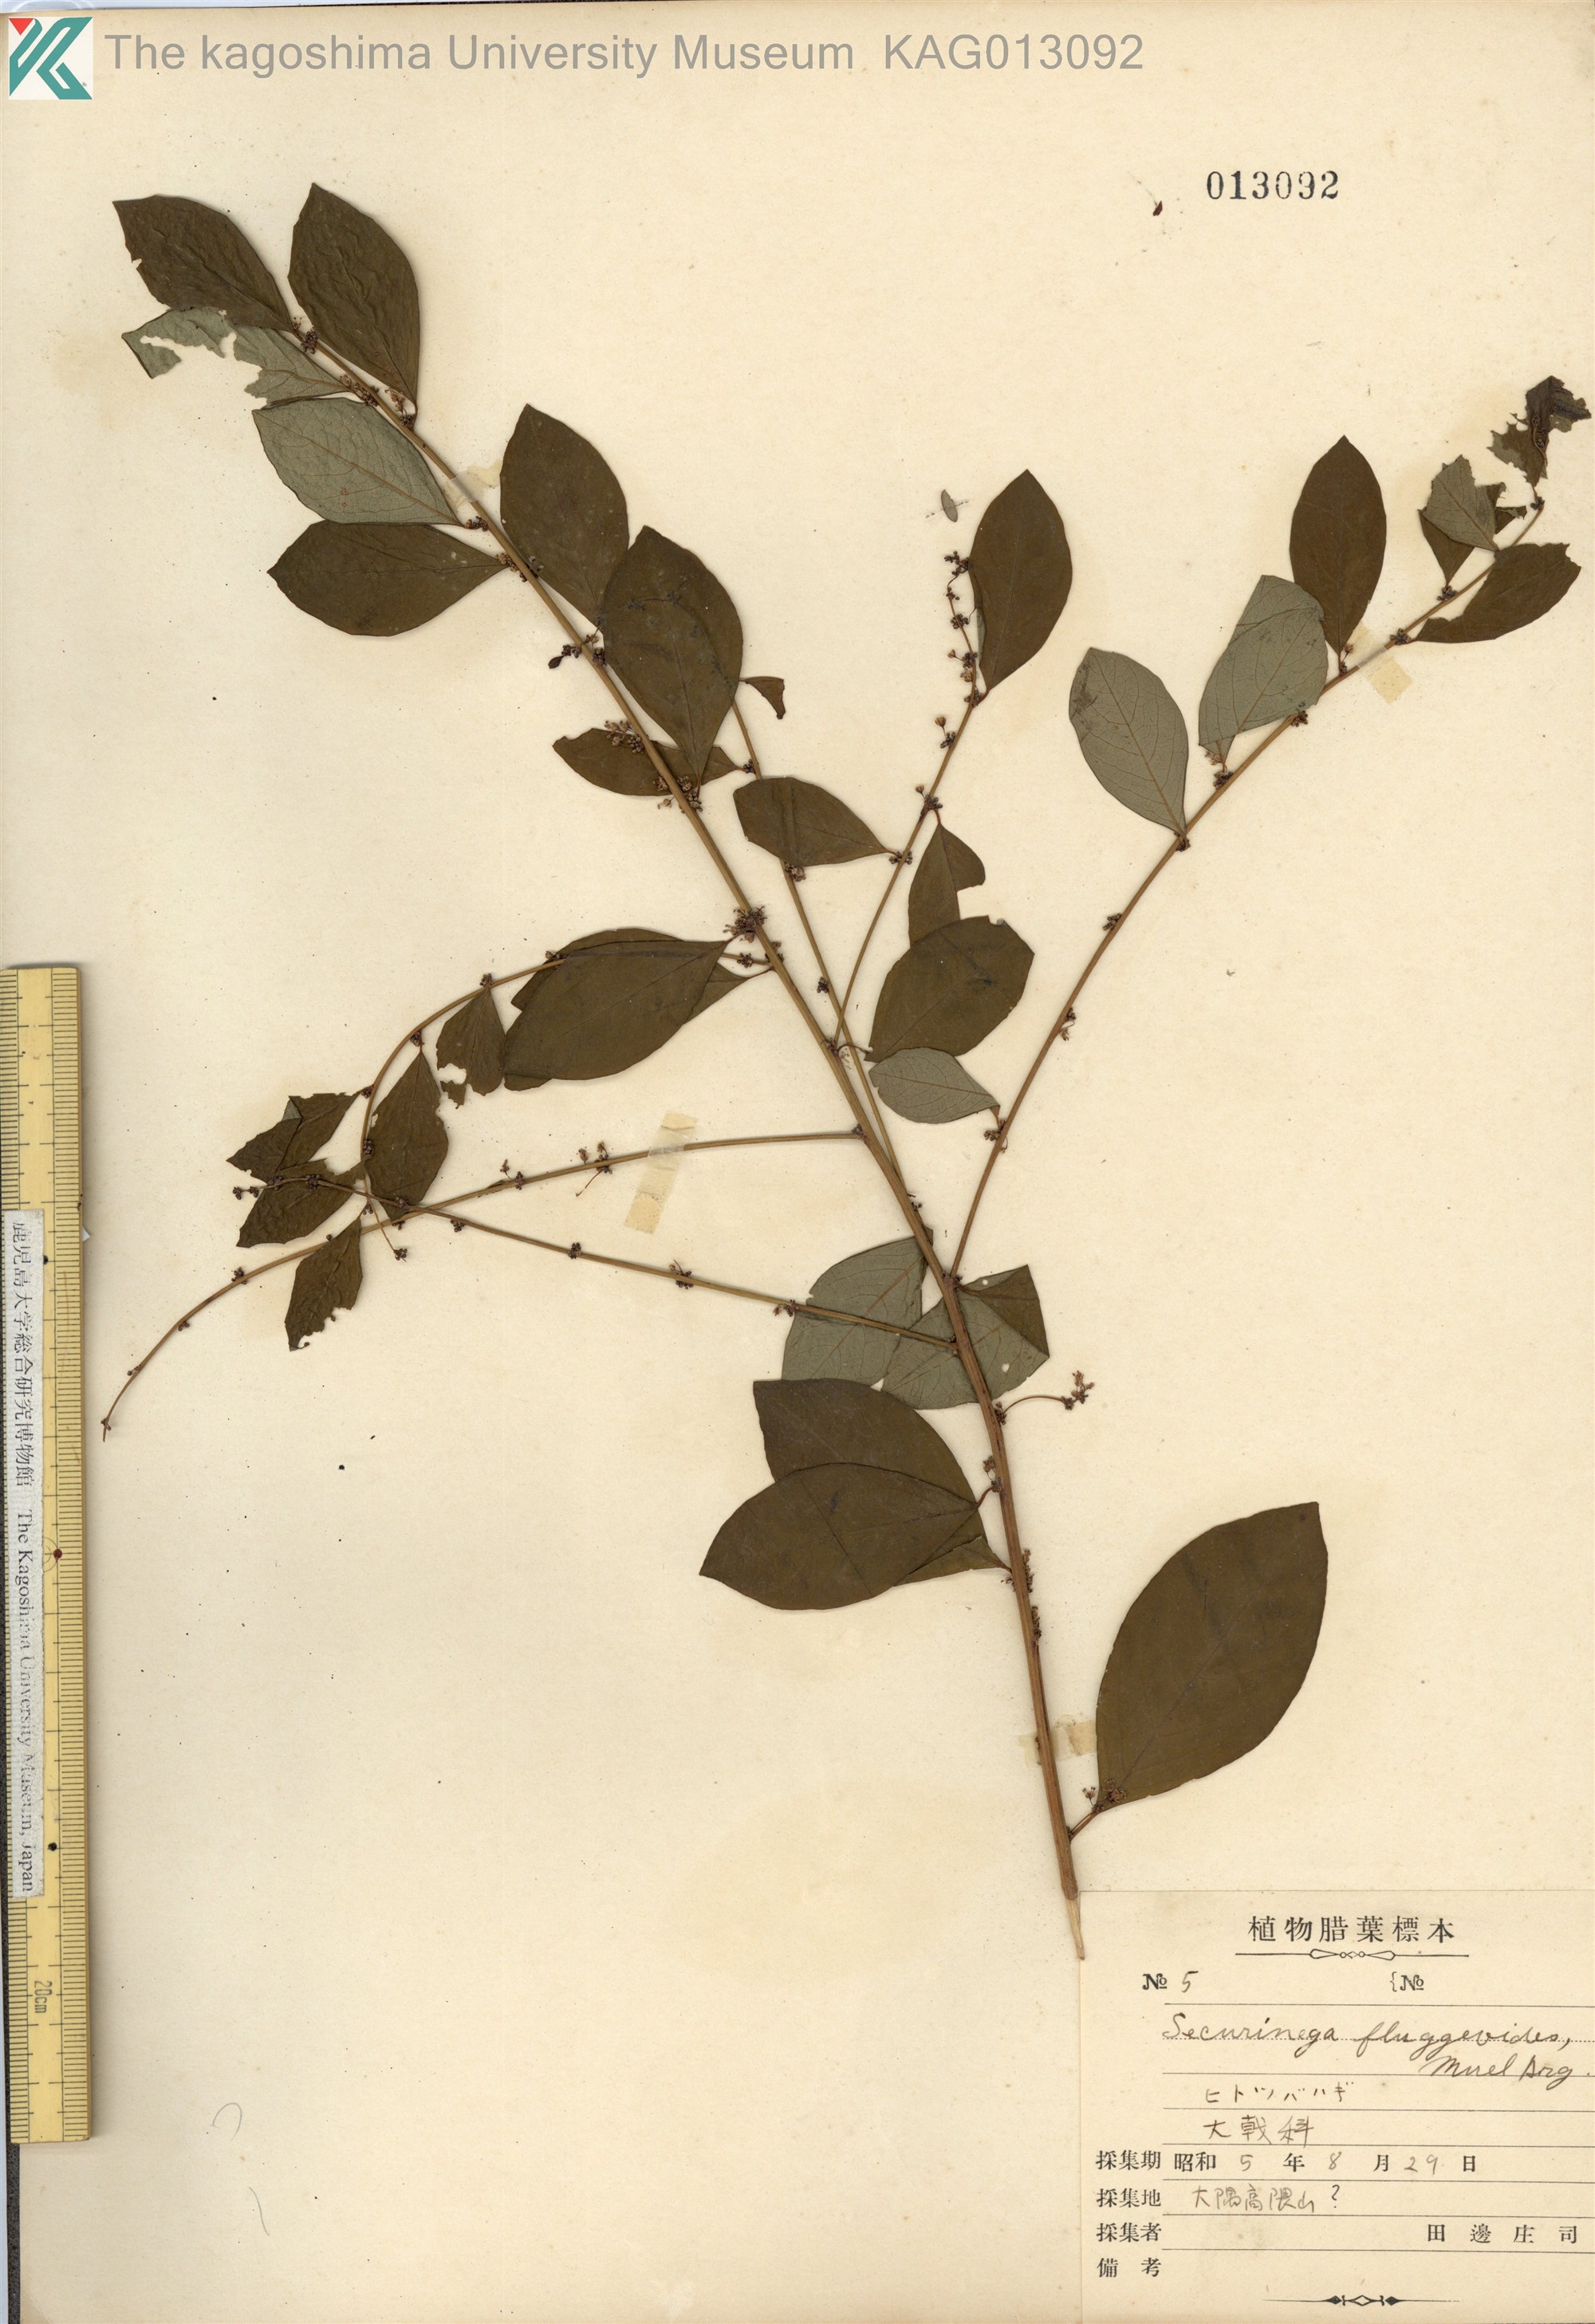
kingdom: Plantae
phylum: Tracheophyta
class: Magnoliopsida
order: Malpighiales
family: Phyllanthaceae
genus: Flueggea
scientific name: Flueggea suffruticosa
